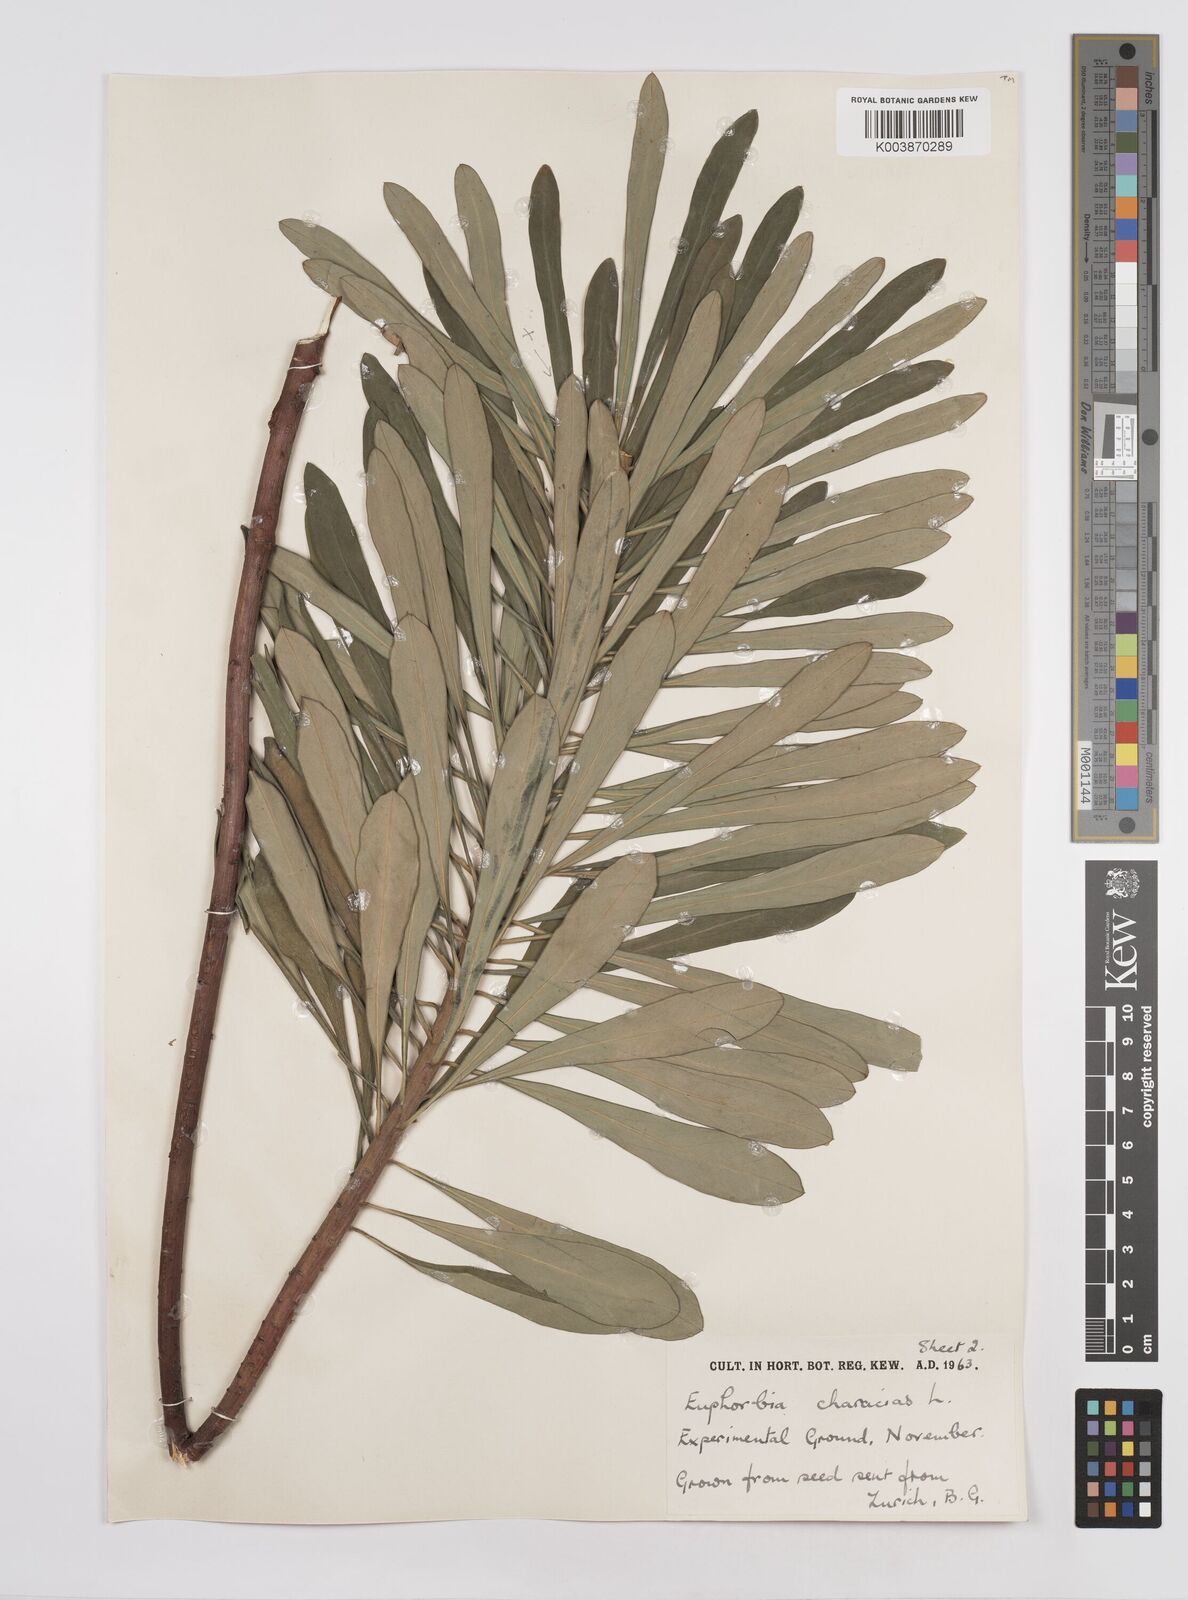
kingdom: Plantae
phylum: Tracheophyta
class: Magnoliopsida
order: Malpighiales
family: Euphorbiaceae
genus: Euphorbia
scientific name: Euphorbia characias
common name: Mediterranean spurge
